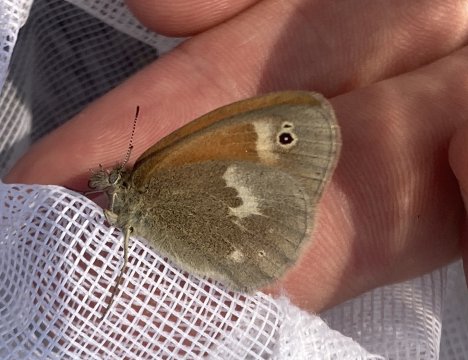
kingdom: Animalia
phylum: Arthropoda
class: Insecta
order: Lepidoptera
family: Nymphalidae
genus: Coenonympha
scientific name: Coenonympha tullia
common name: Large Heath
